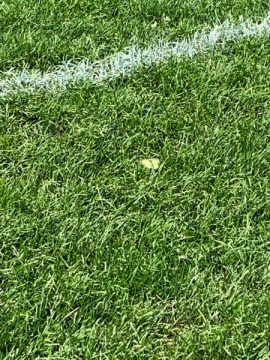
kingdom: Animalia
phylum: Arthropoda
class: Insecta
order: Lepidoptera
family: Pieridae
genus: Colias
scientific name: Colias philodice
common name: Clouded Sulphur
